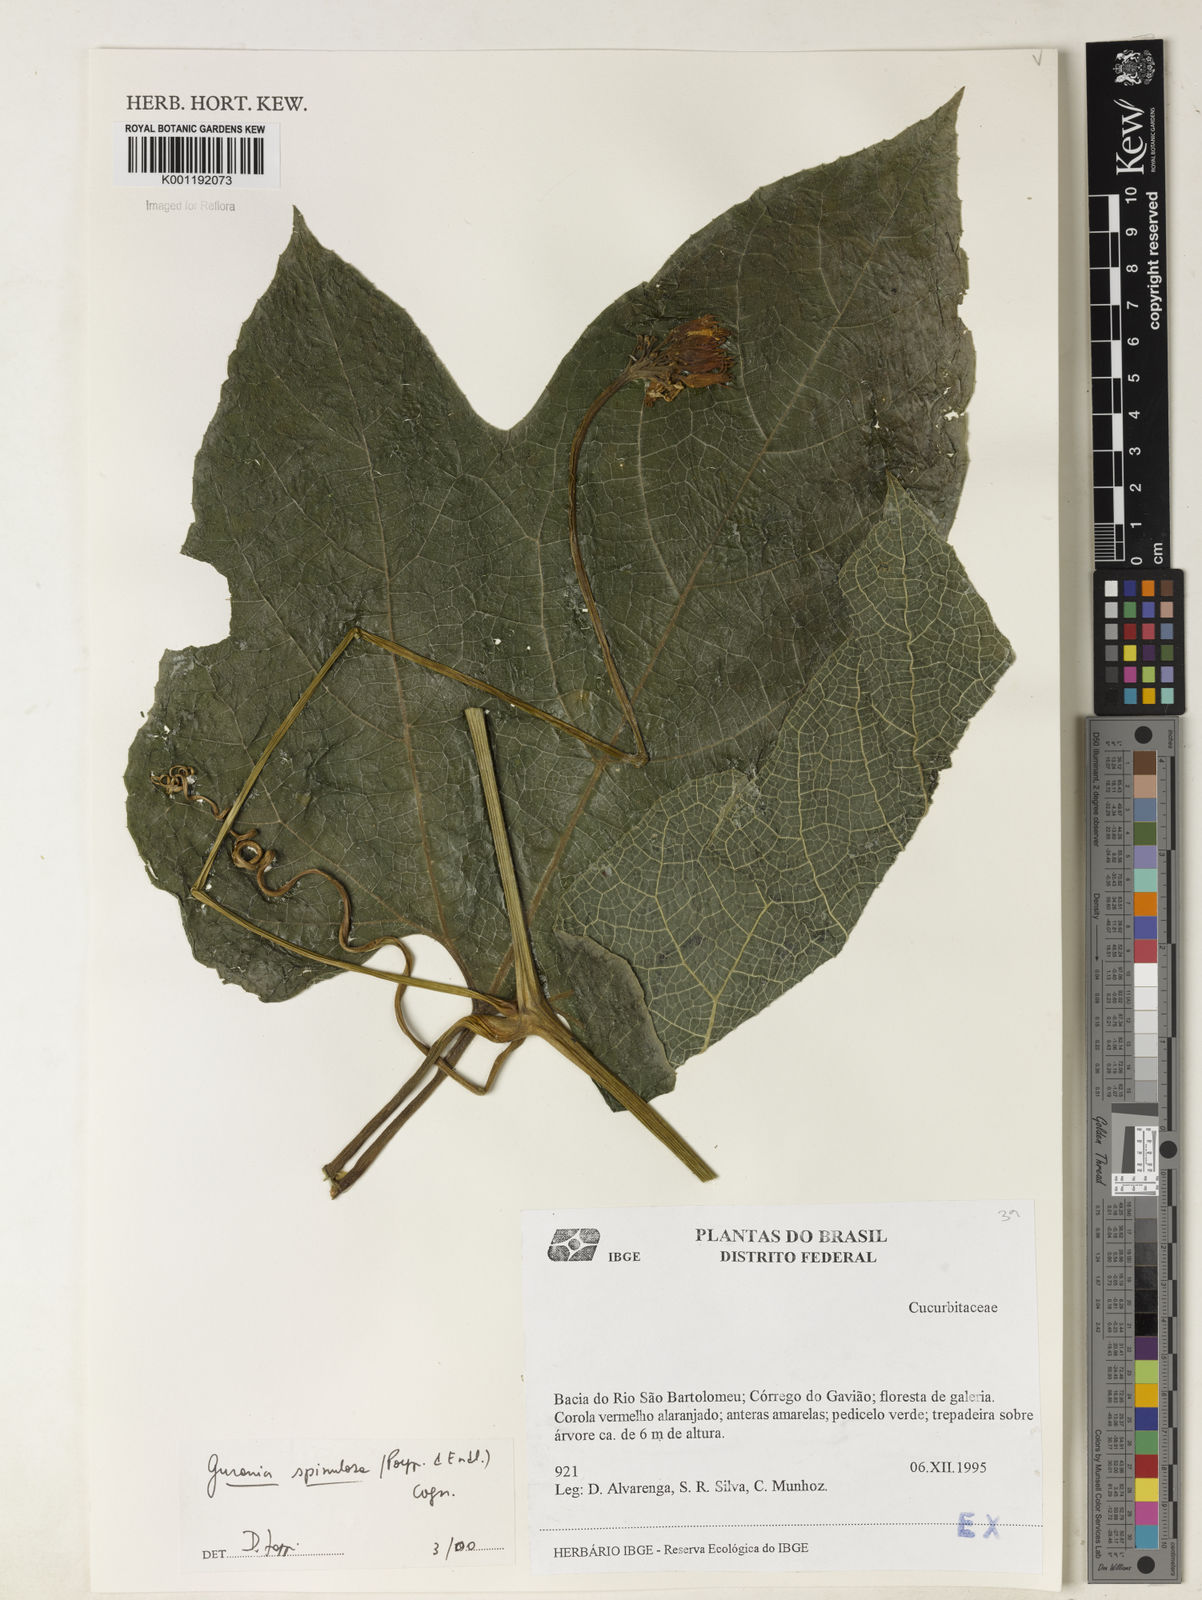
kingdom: Plantae
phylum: Tracheophyta
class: Magnoliopsida
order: Cucurbitales
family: Cucurbitaceae
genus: Gurania
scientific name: Gurania lobata
